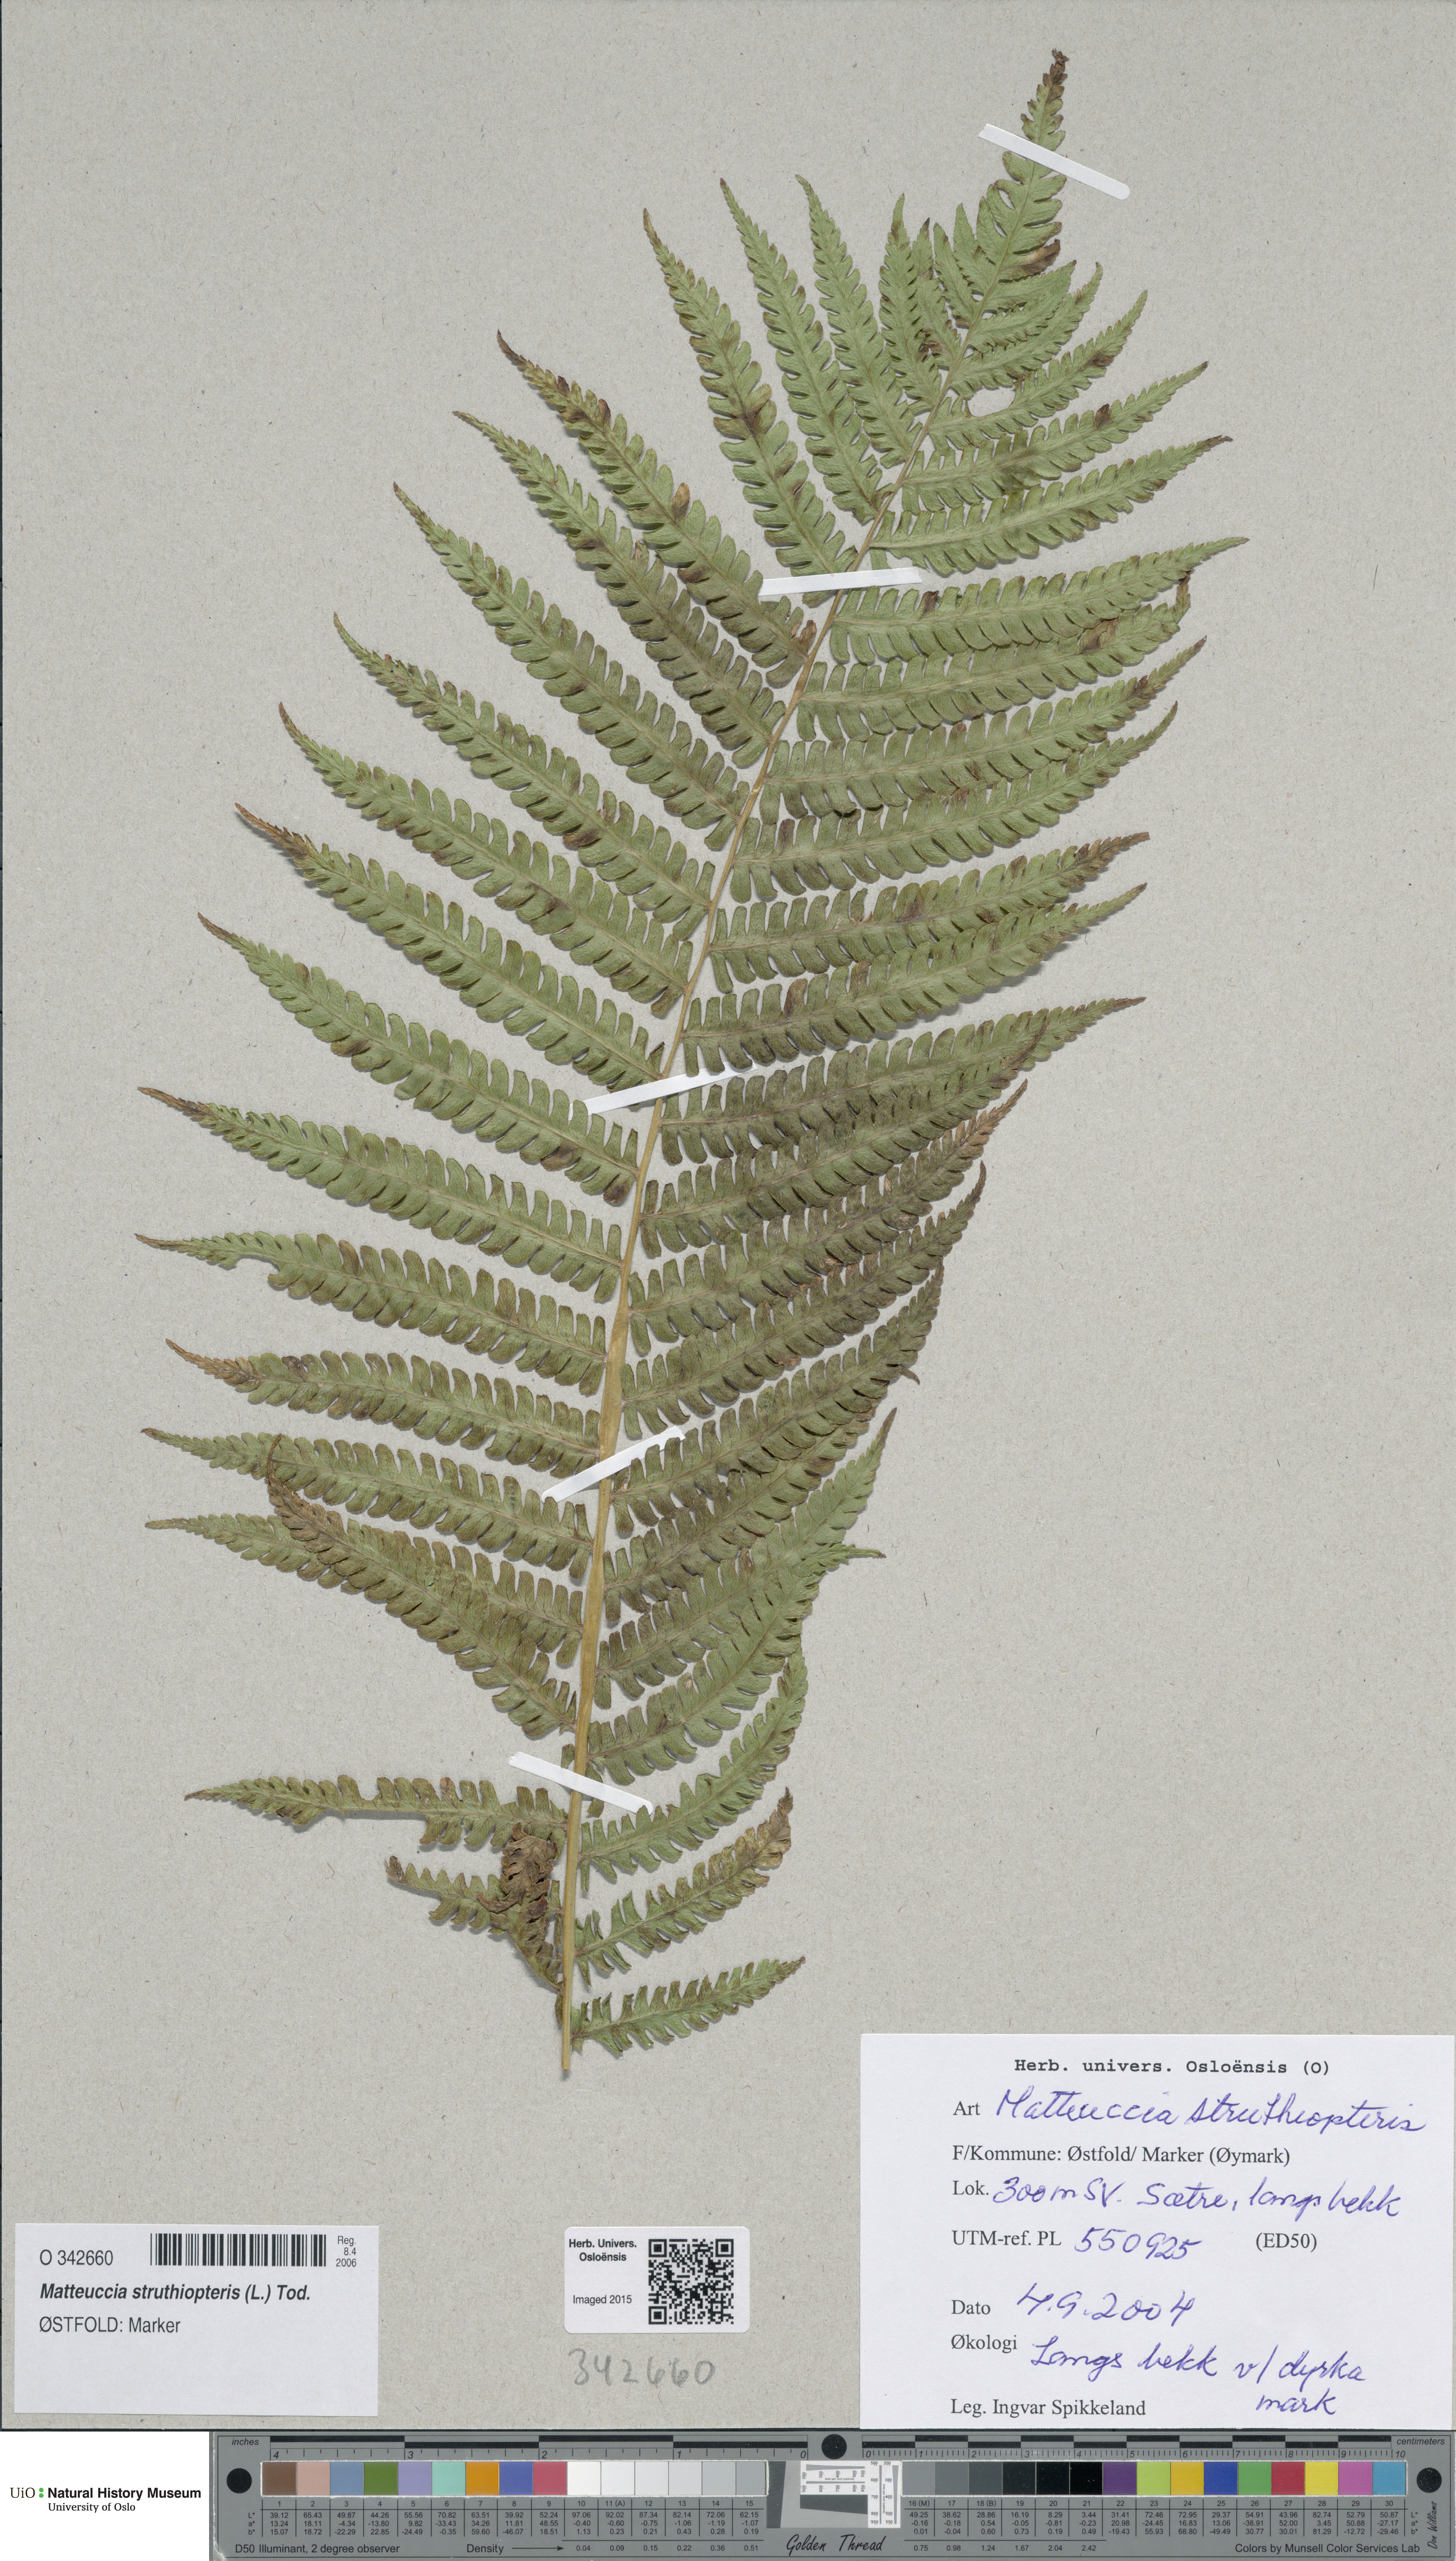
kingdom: Plantae
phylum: Tracheophyta
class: Polypodiopsida
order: Polypodiales
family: Onocleaceae
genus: Matteuccia
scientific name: Matteuccia struthiopteris
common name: Ostrich fern
